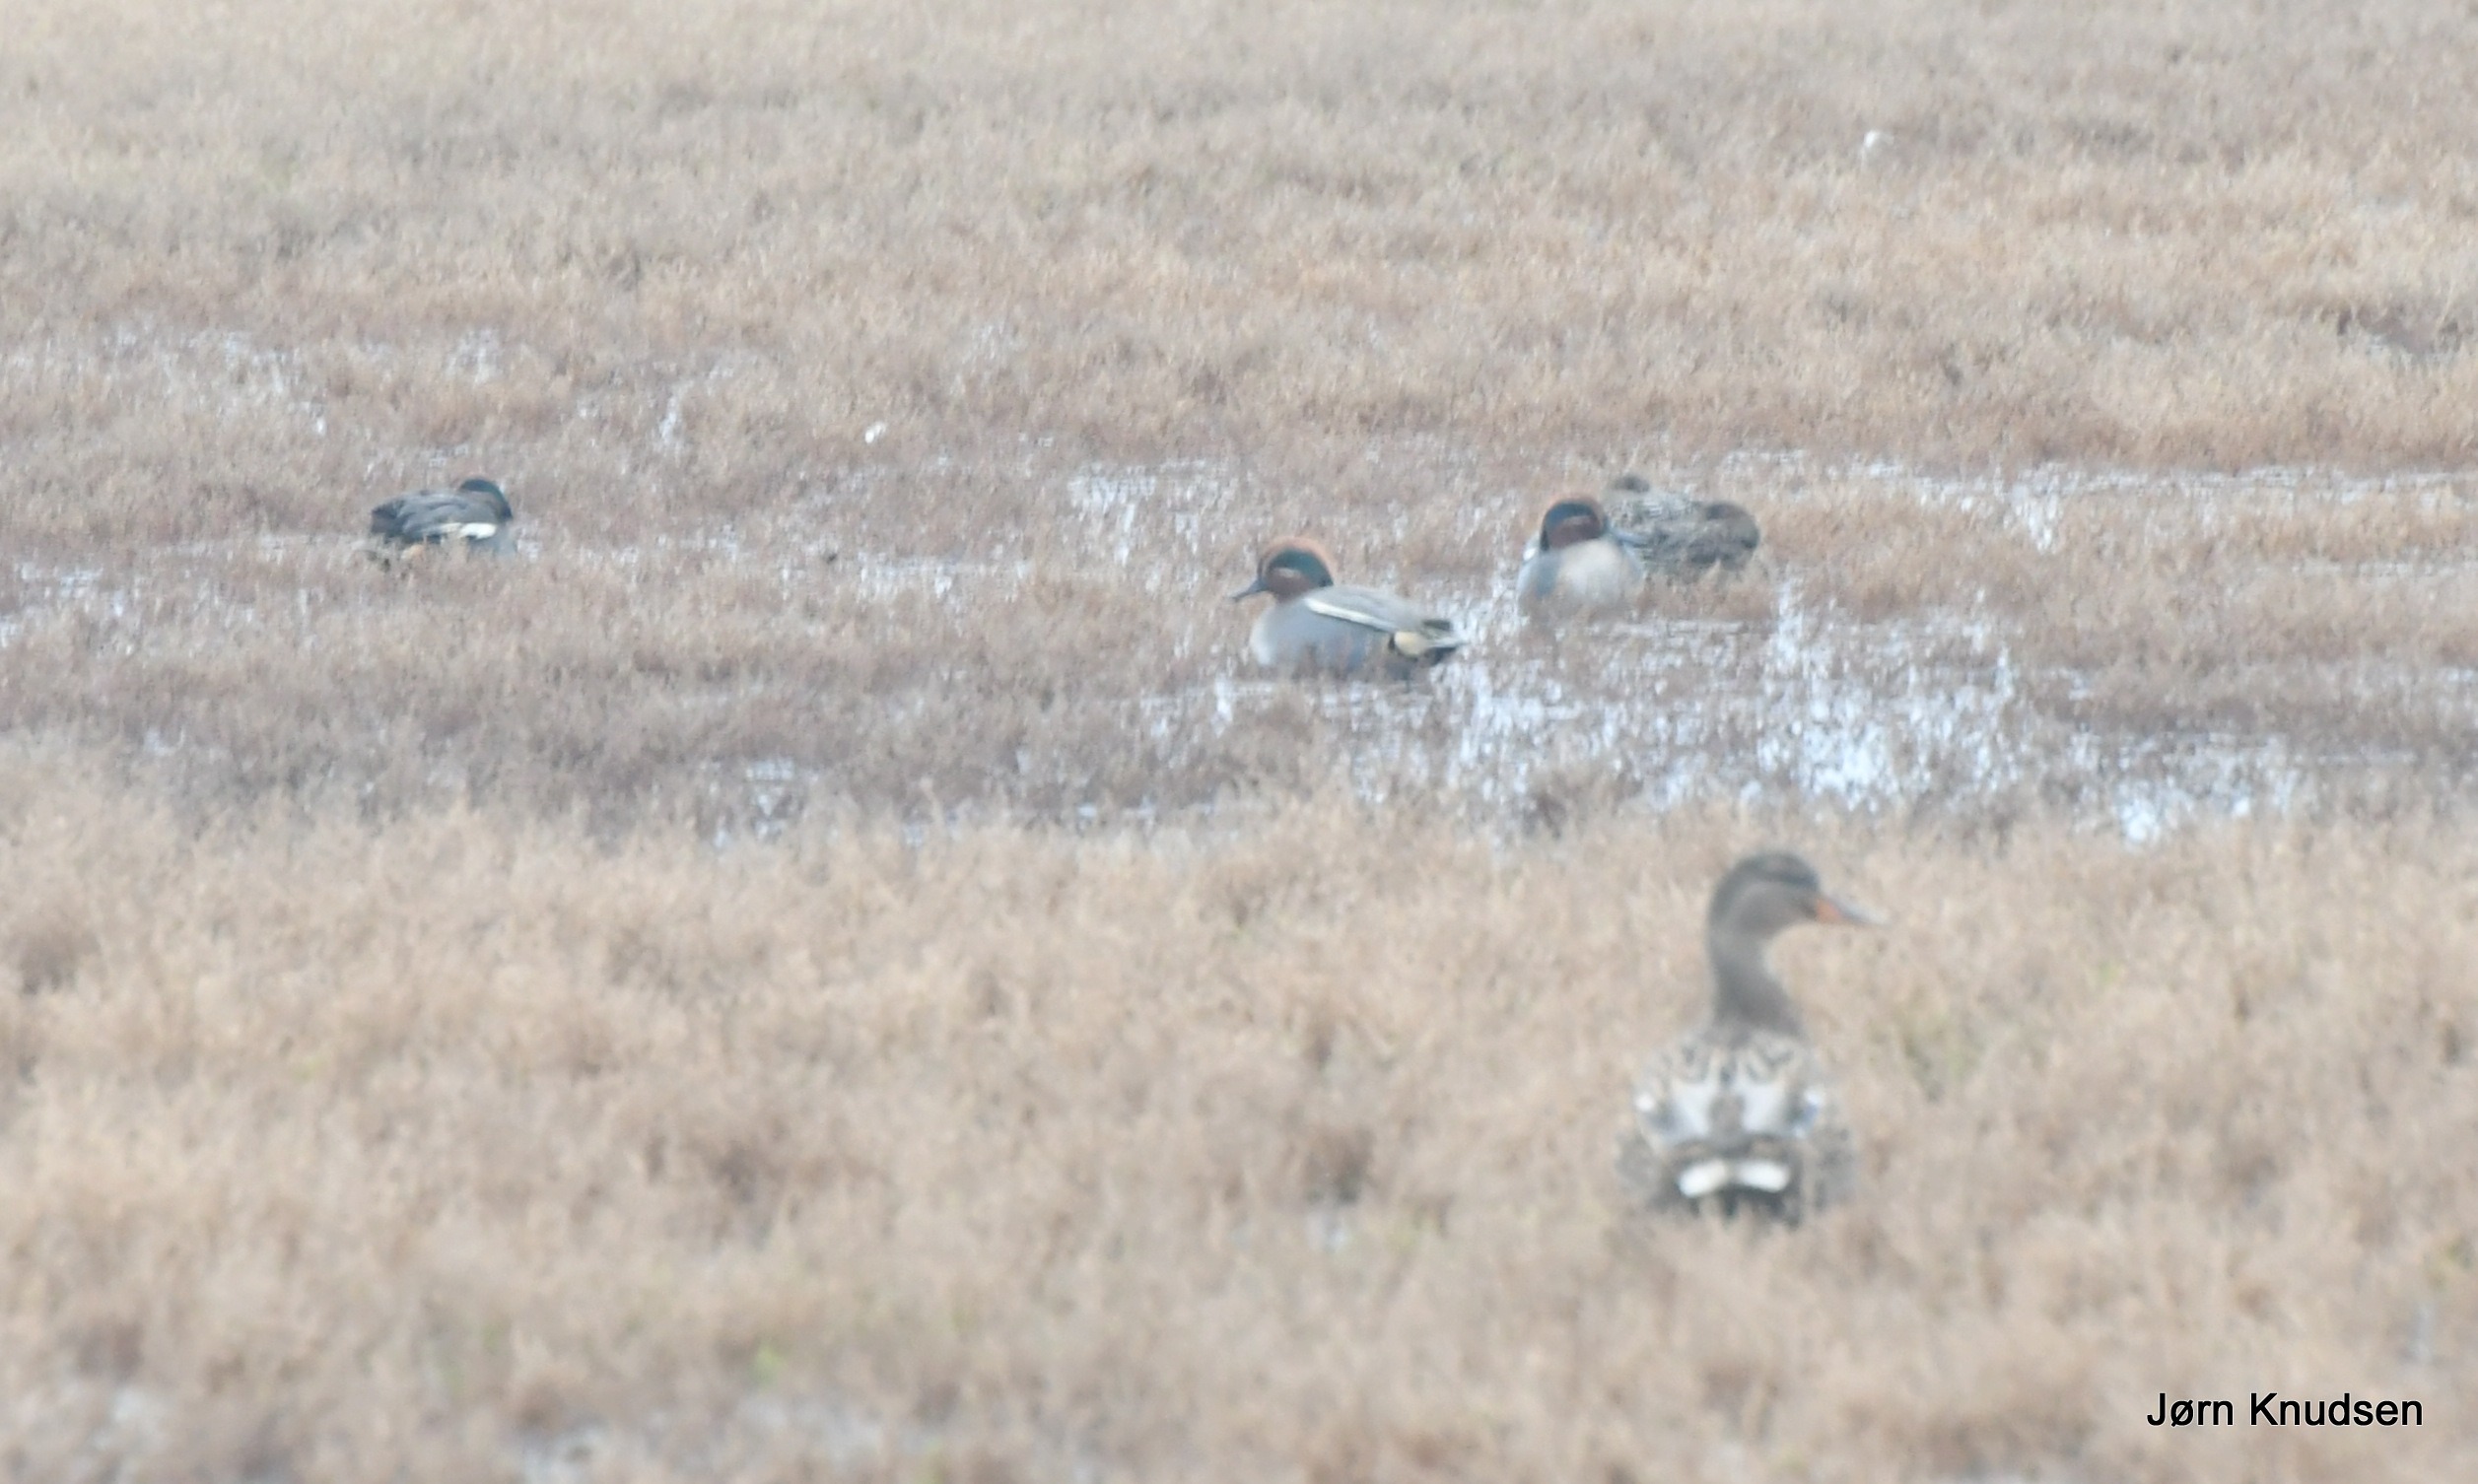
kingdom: Animalia
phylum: Chordata
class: Aves
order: Anseriformes
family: Anatidae
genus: Anas
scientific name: Anas crecca
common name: Krikand
